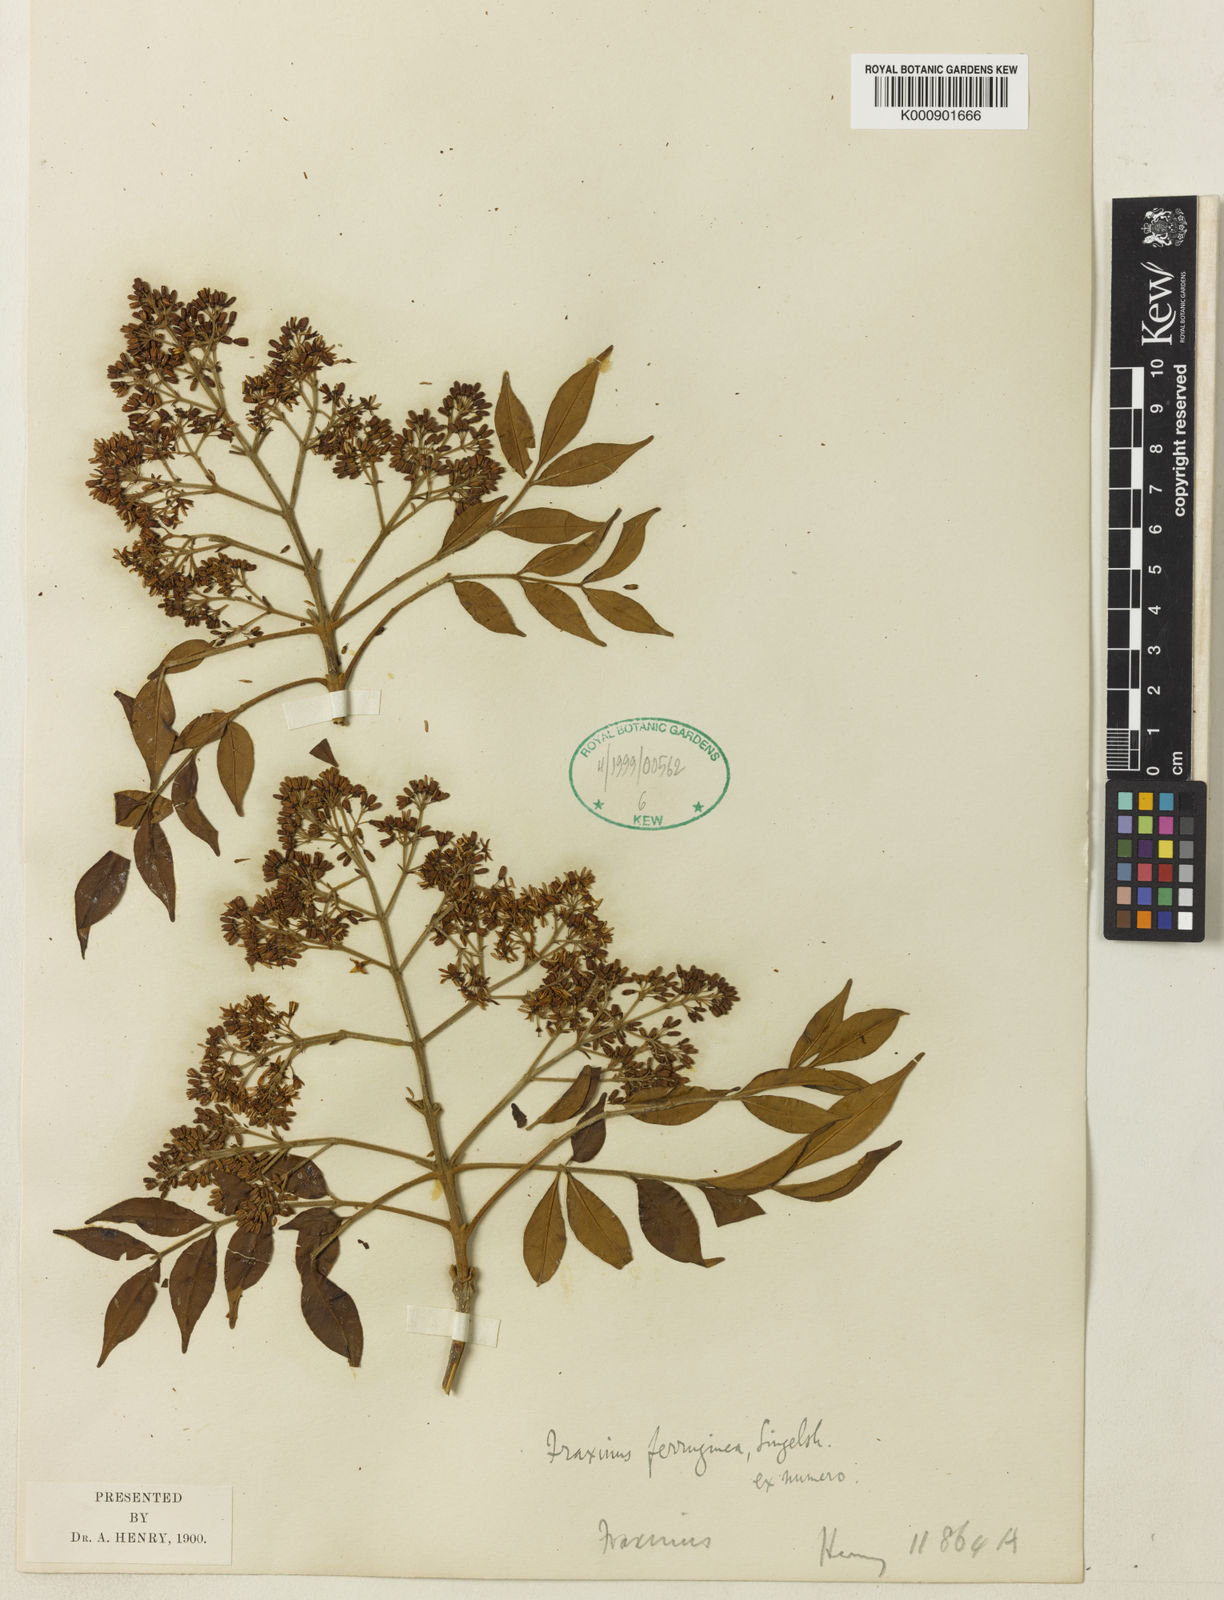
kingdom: Plantae
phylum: Tracheophyta
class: Magnoliopsida
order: Lamiales
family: Oleaceae
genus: Fraxinus
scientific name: Fraxinus griffithii
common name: Himalayan ash
